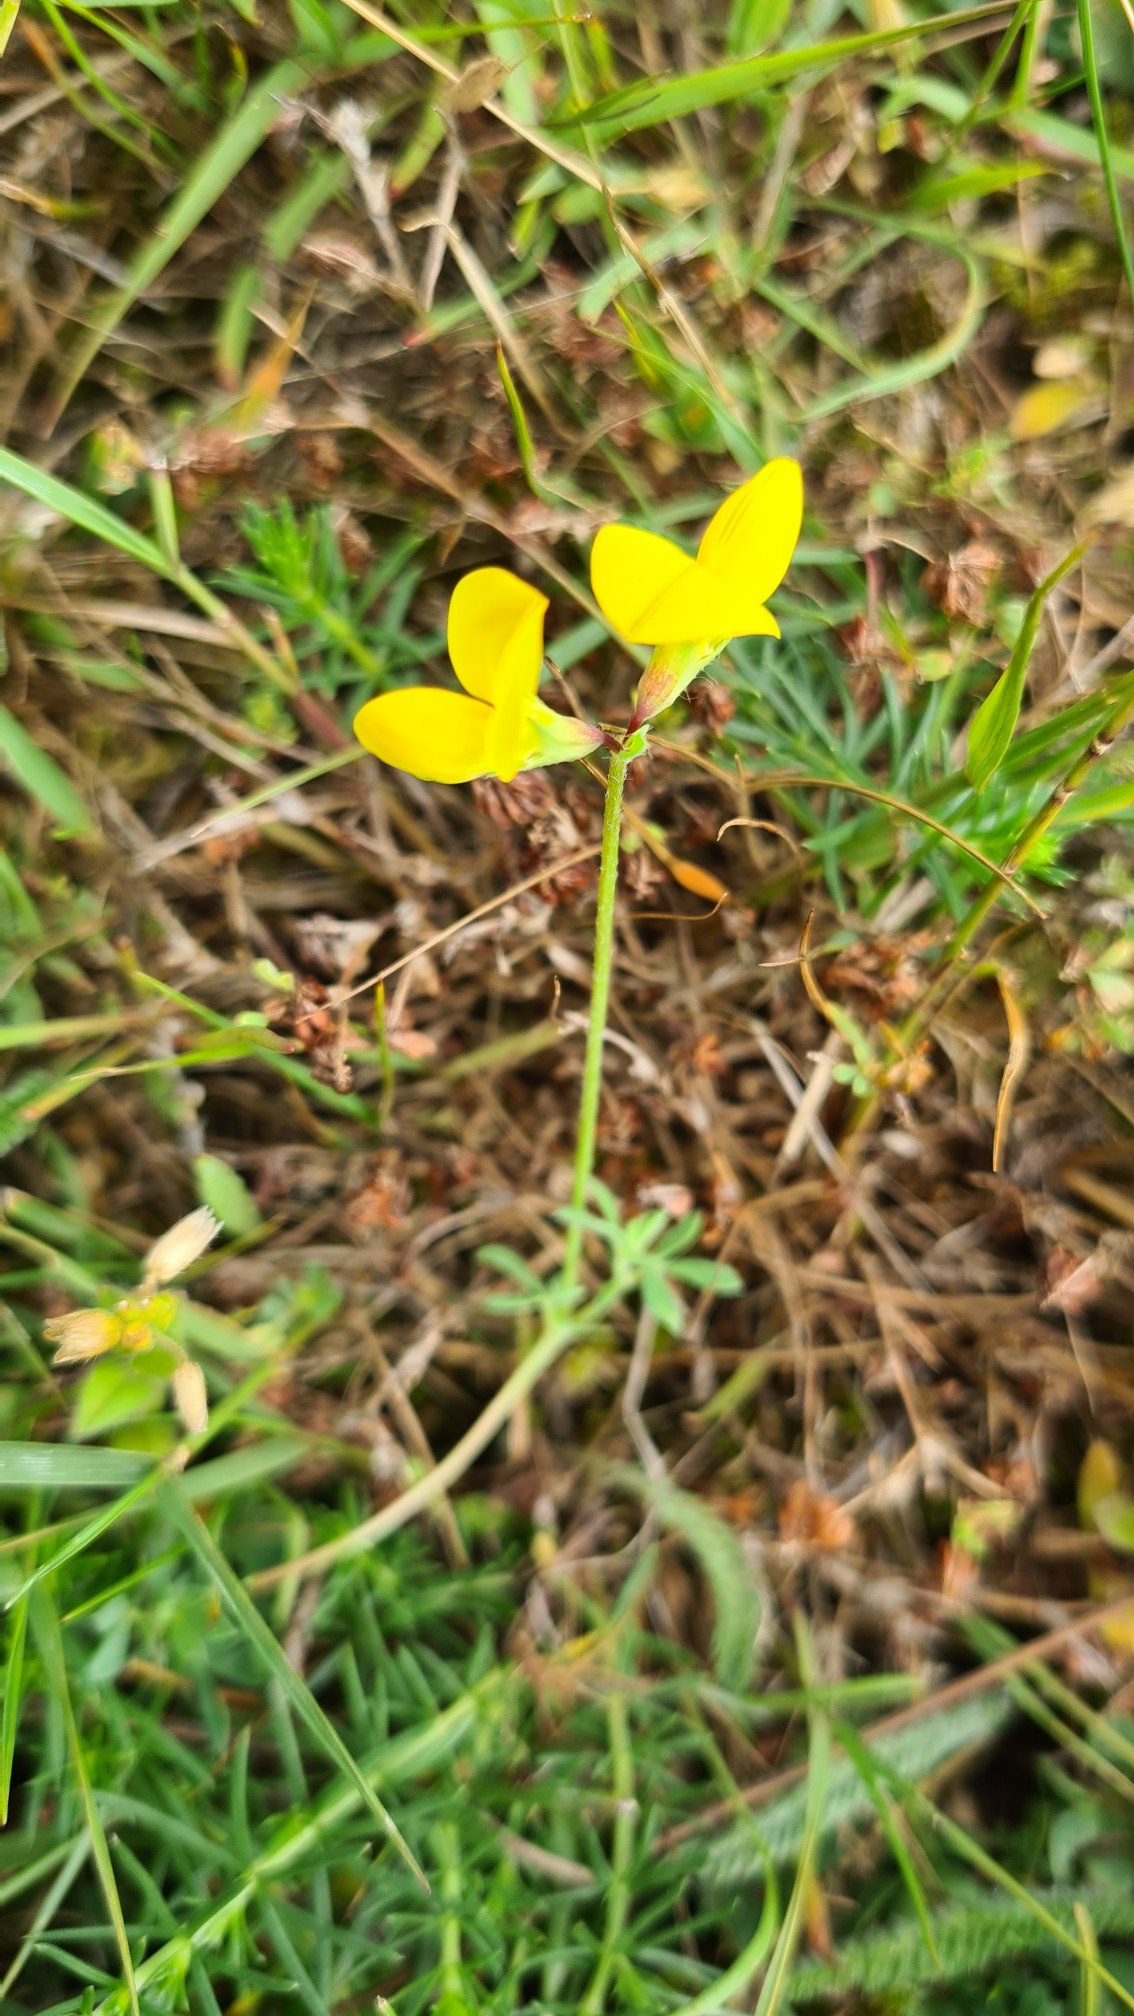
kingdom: Plantae
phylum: Tracheophyta
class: Magnoliopsida
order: Fabales
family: Fabaceae
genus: Lotus
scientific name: Lotus corniculatus
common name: Almindelig kællingetand
